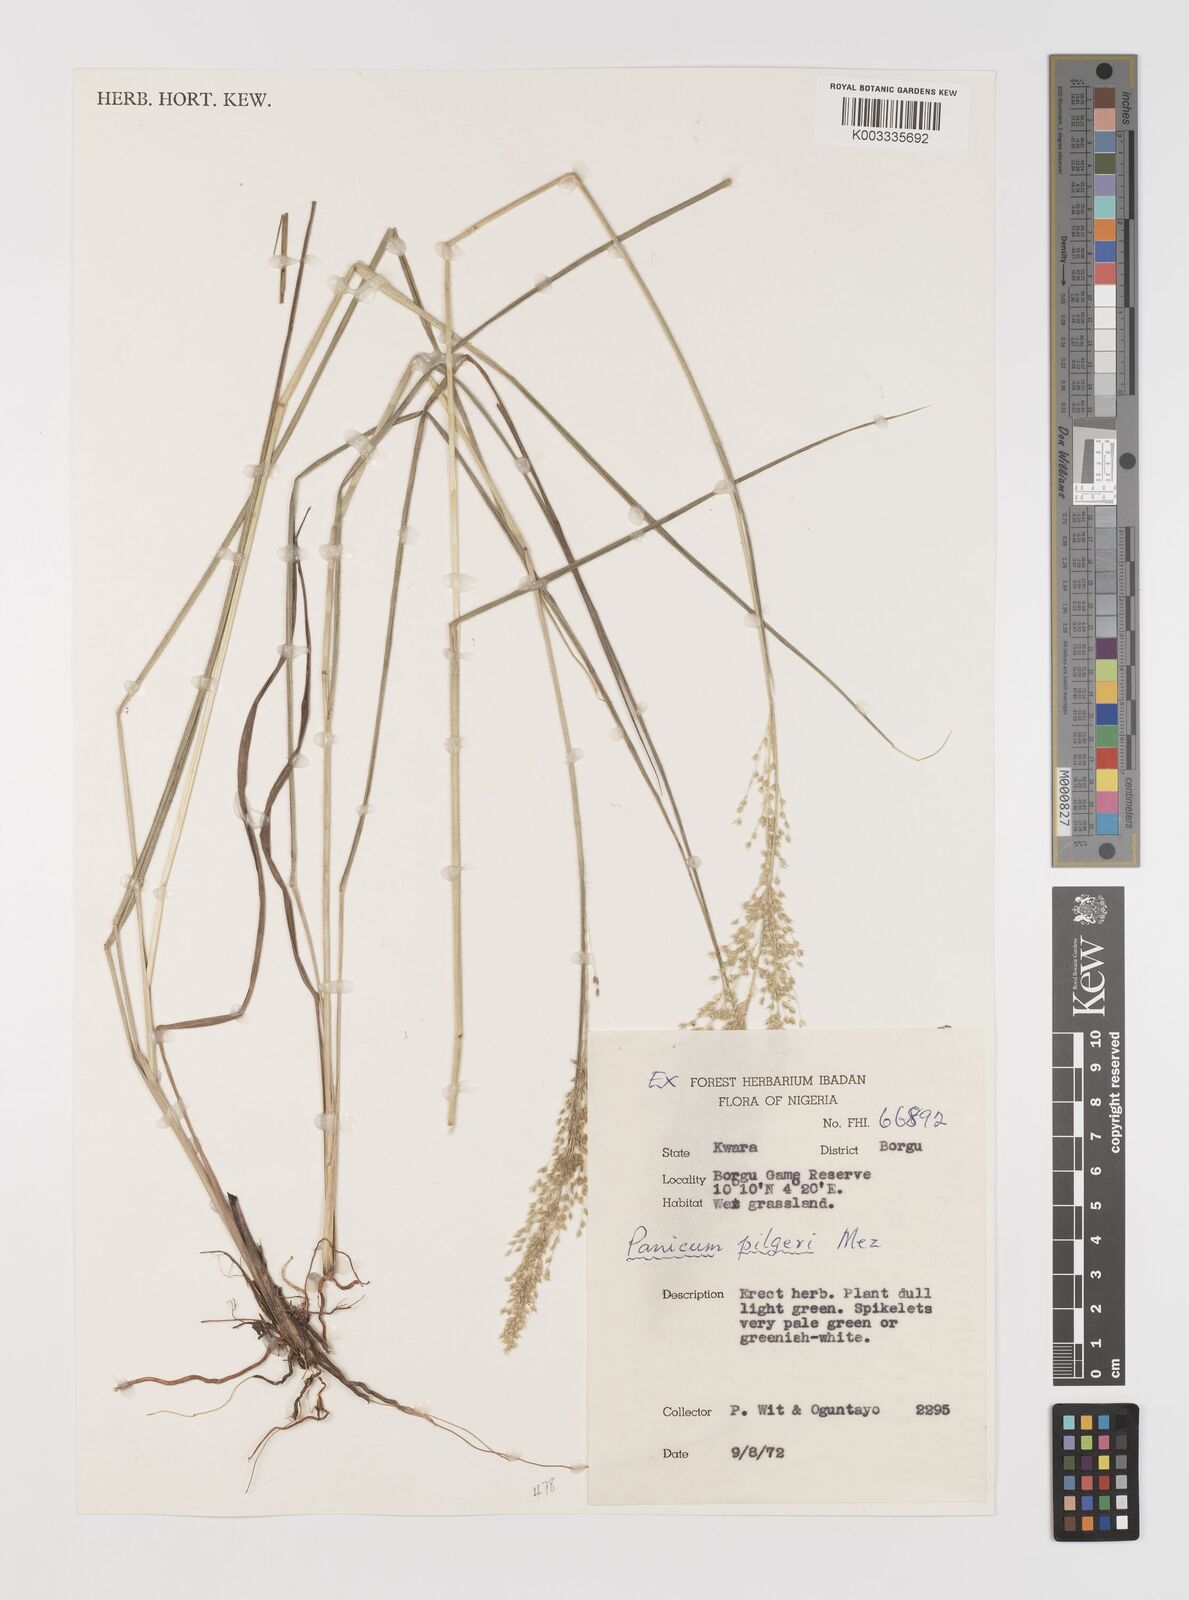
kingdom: Plantae
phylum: Tracheophyta
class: Liliopsida
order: Poales
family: Poaceae
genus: Panicum
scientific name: Panicum
